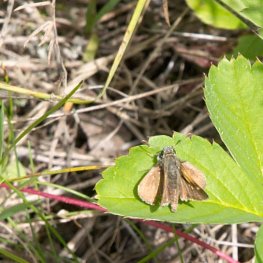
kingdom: Animalia
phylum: Arthropoda
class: Insecta
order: Lepidoptera
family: Hesperiidae
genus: Polites
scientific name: Polites themistocles
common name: Tawny-edged Skipper
